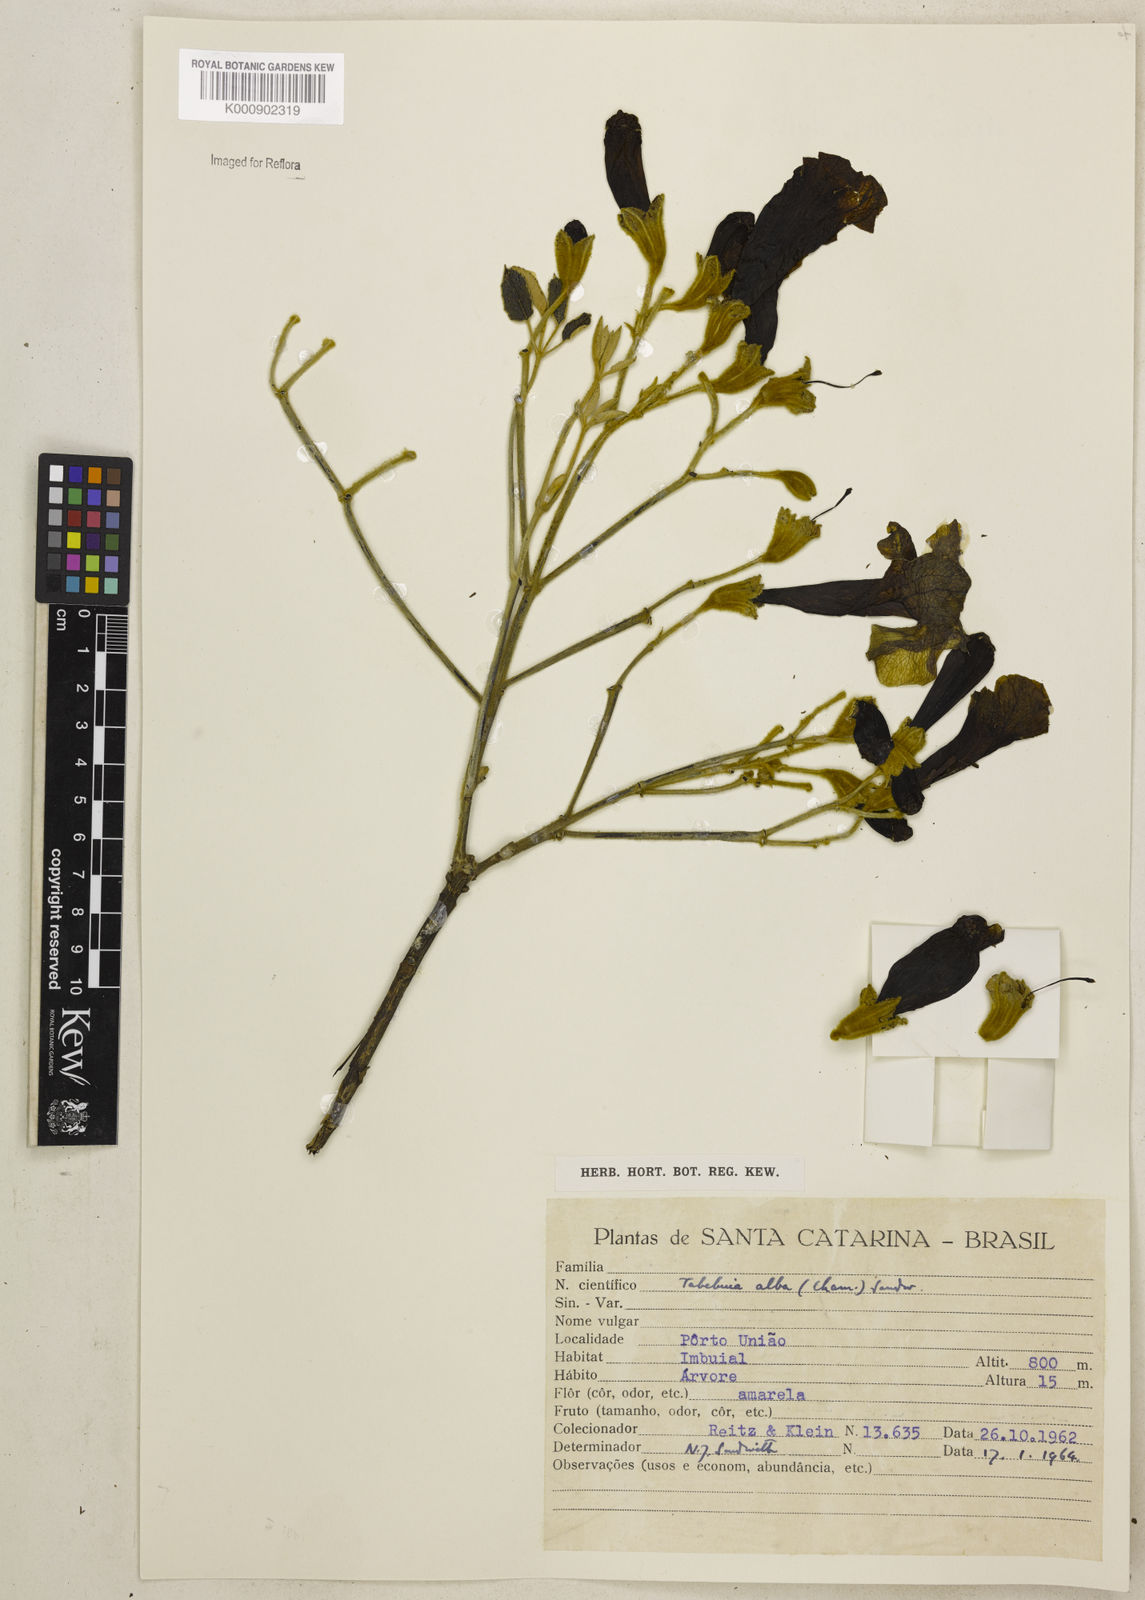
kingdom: Plantae
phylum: Tracheophyta
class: Magnoliopsida
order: Lamiales
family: Bignoniaceae
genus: Handroanthus
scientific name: Handroanthus albus
